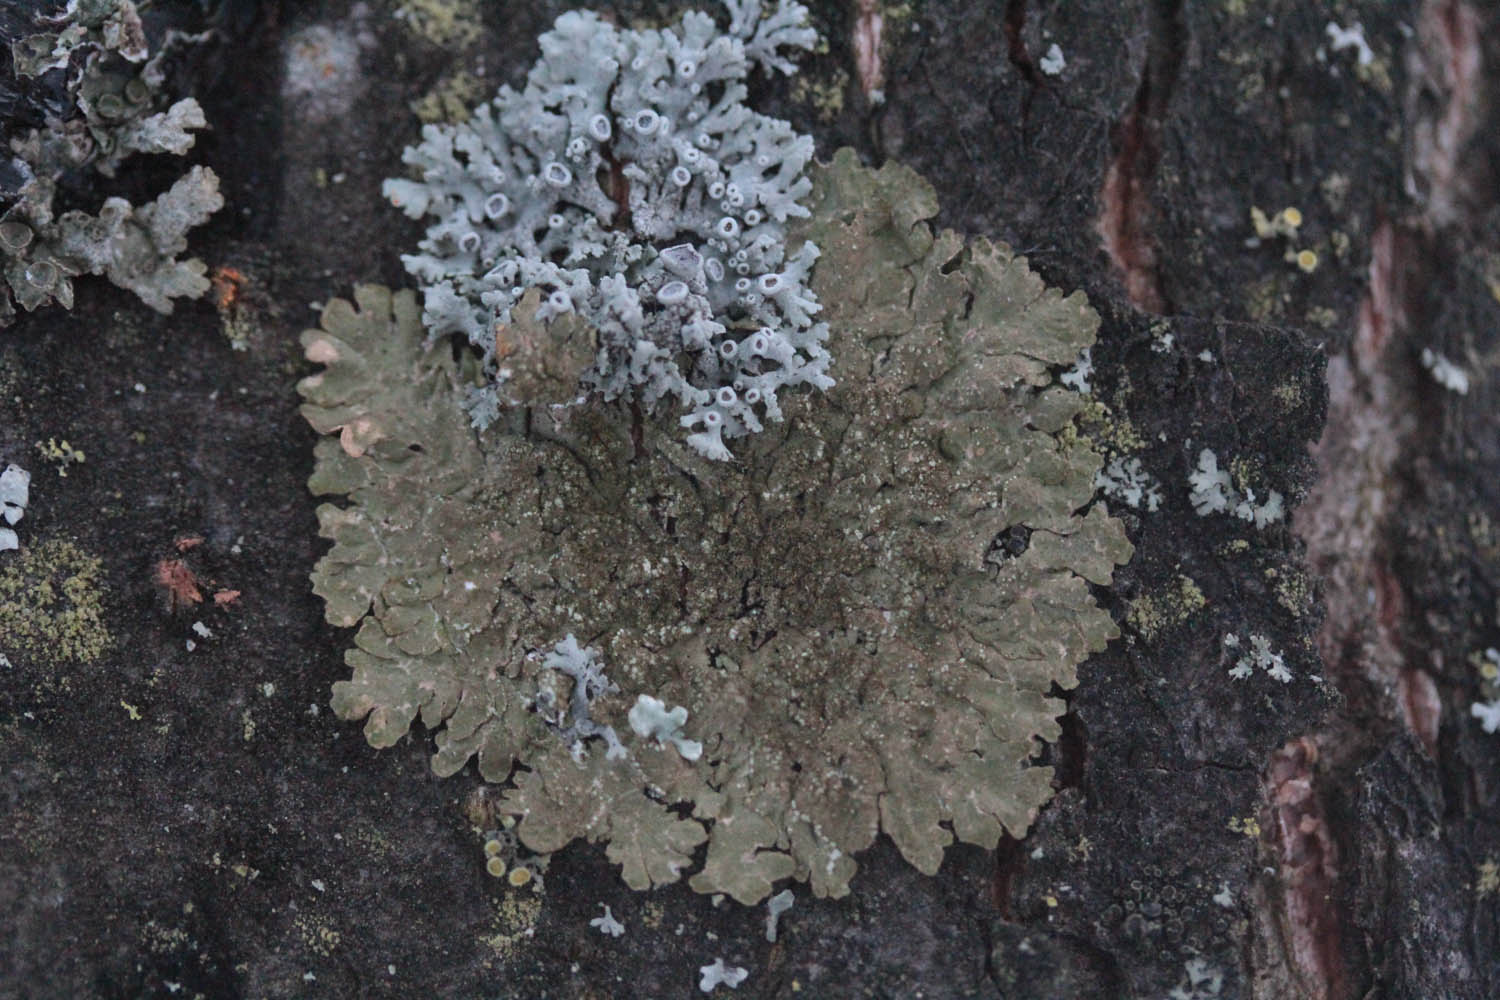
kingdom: Fungi
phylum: Ascomycota
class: Lecanoromycetes
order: Lecanorales
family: Parmeliaceae
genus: Melanelixia
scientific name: Melanelixia fuliginosa
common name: Shiny camouflage lichen
